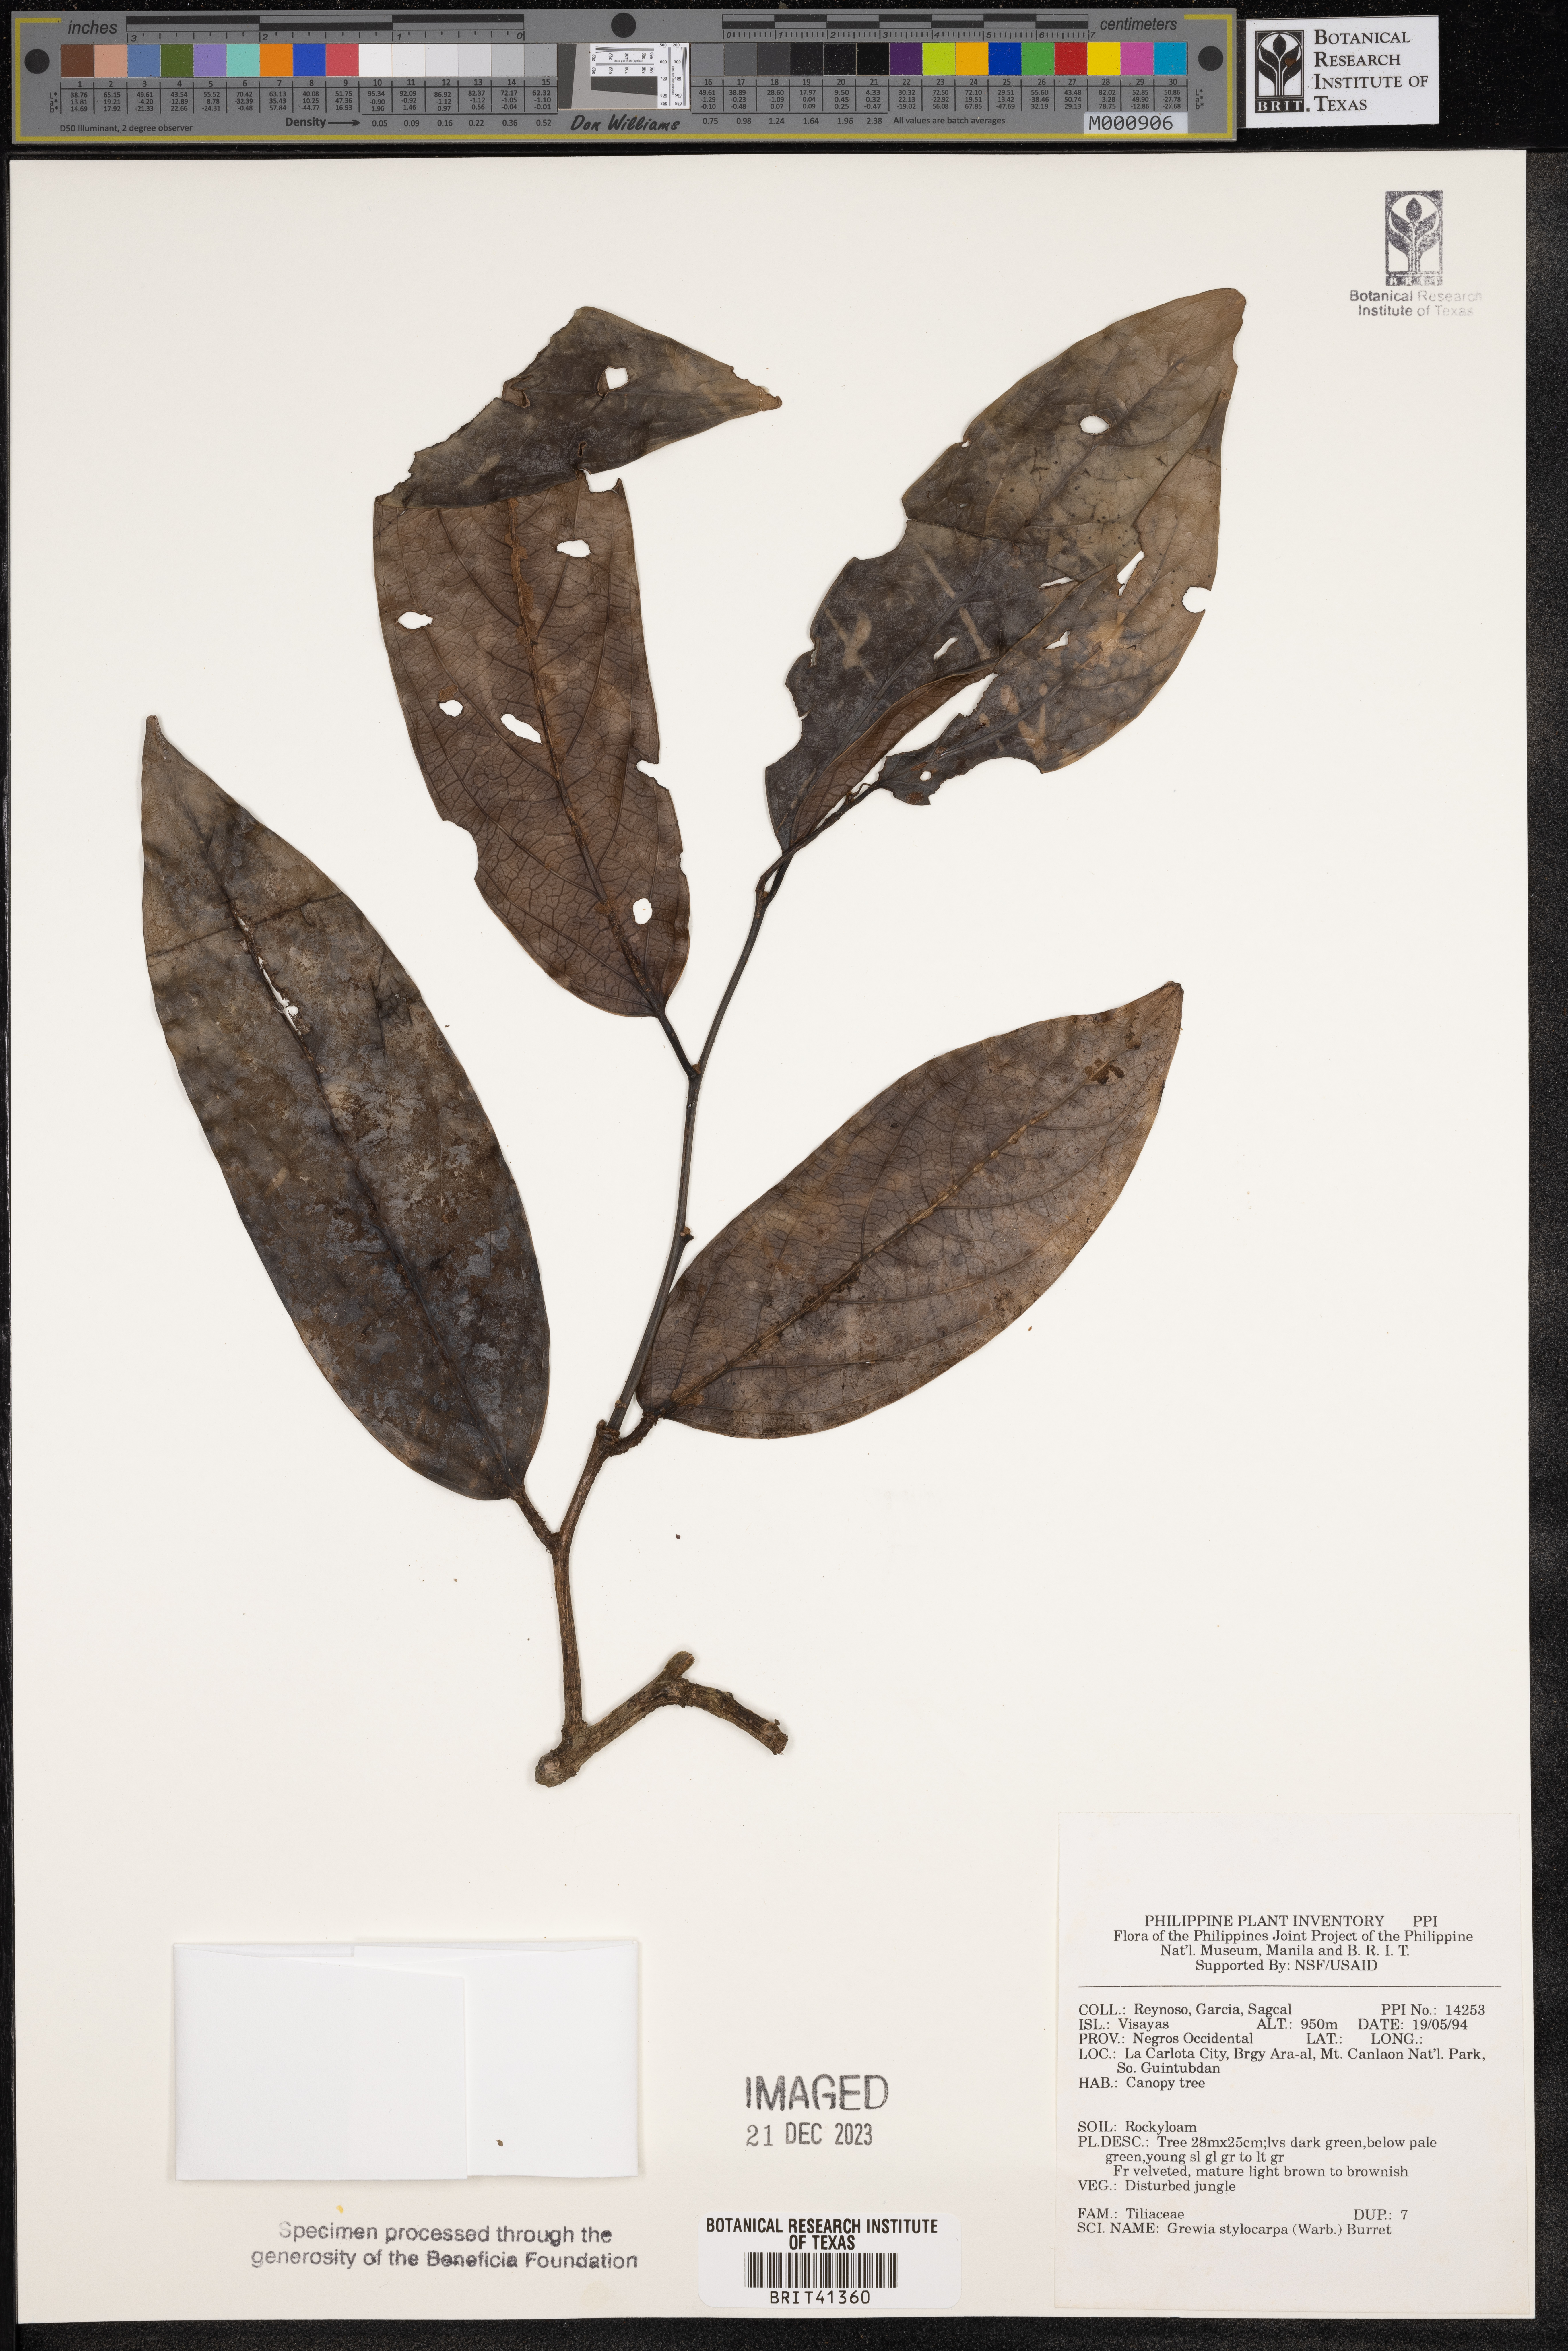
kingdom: Plantae
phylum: Tracheophyta
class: Magnoliopsida
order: Malvales
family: Malvaceae
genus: Microcos
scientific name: Microcos triflora
